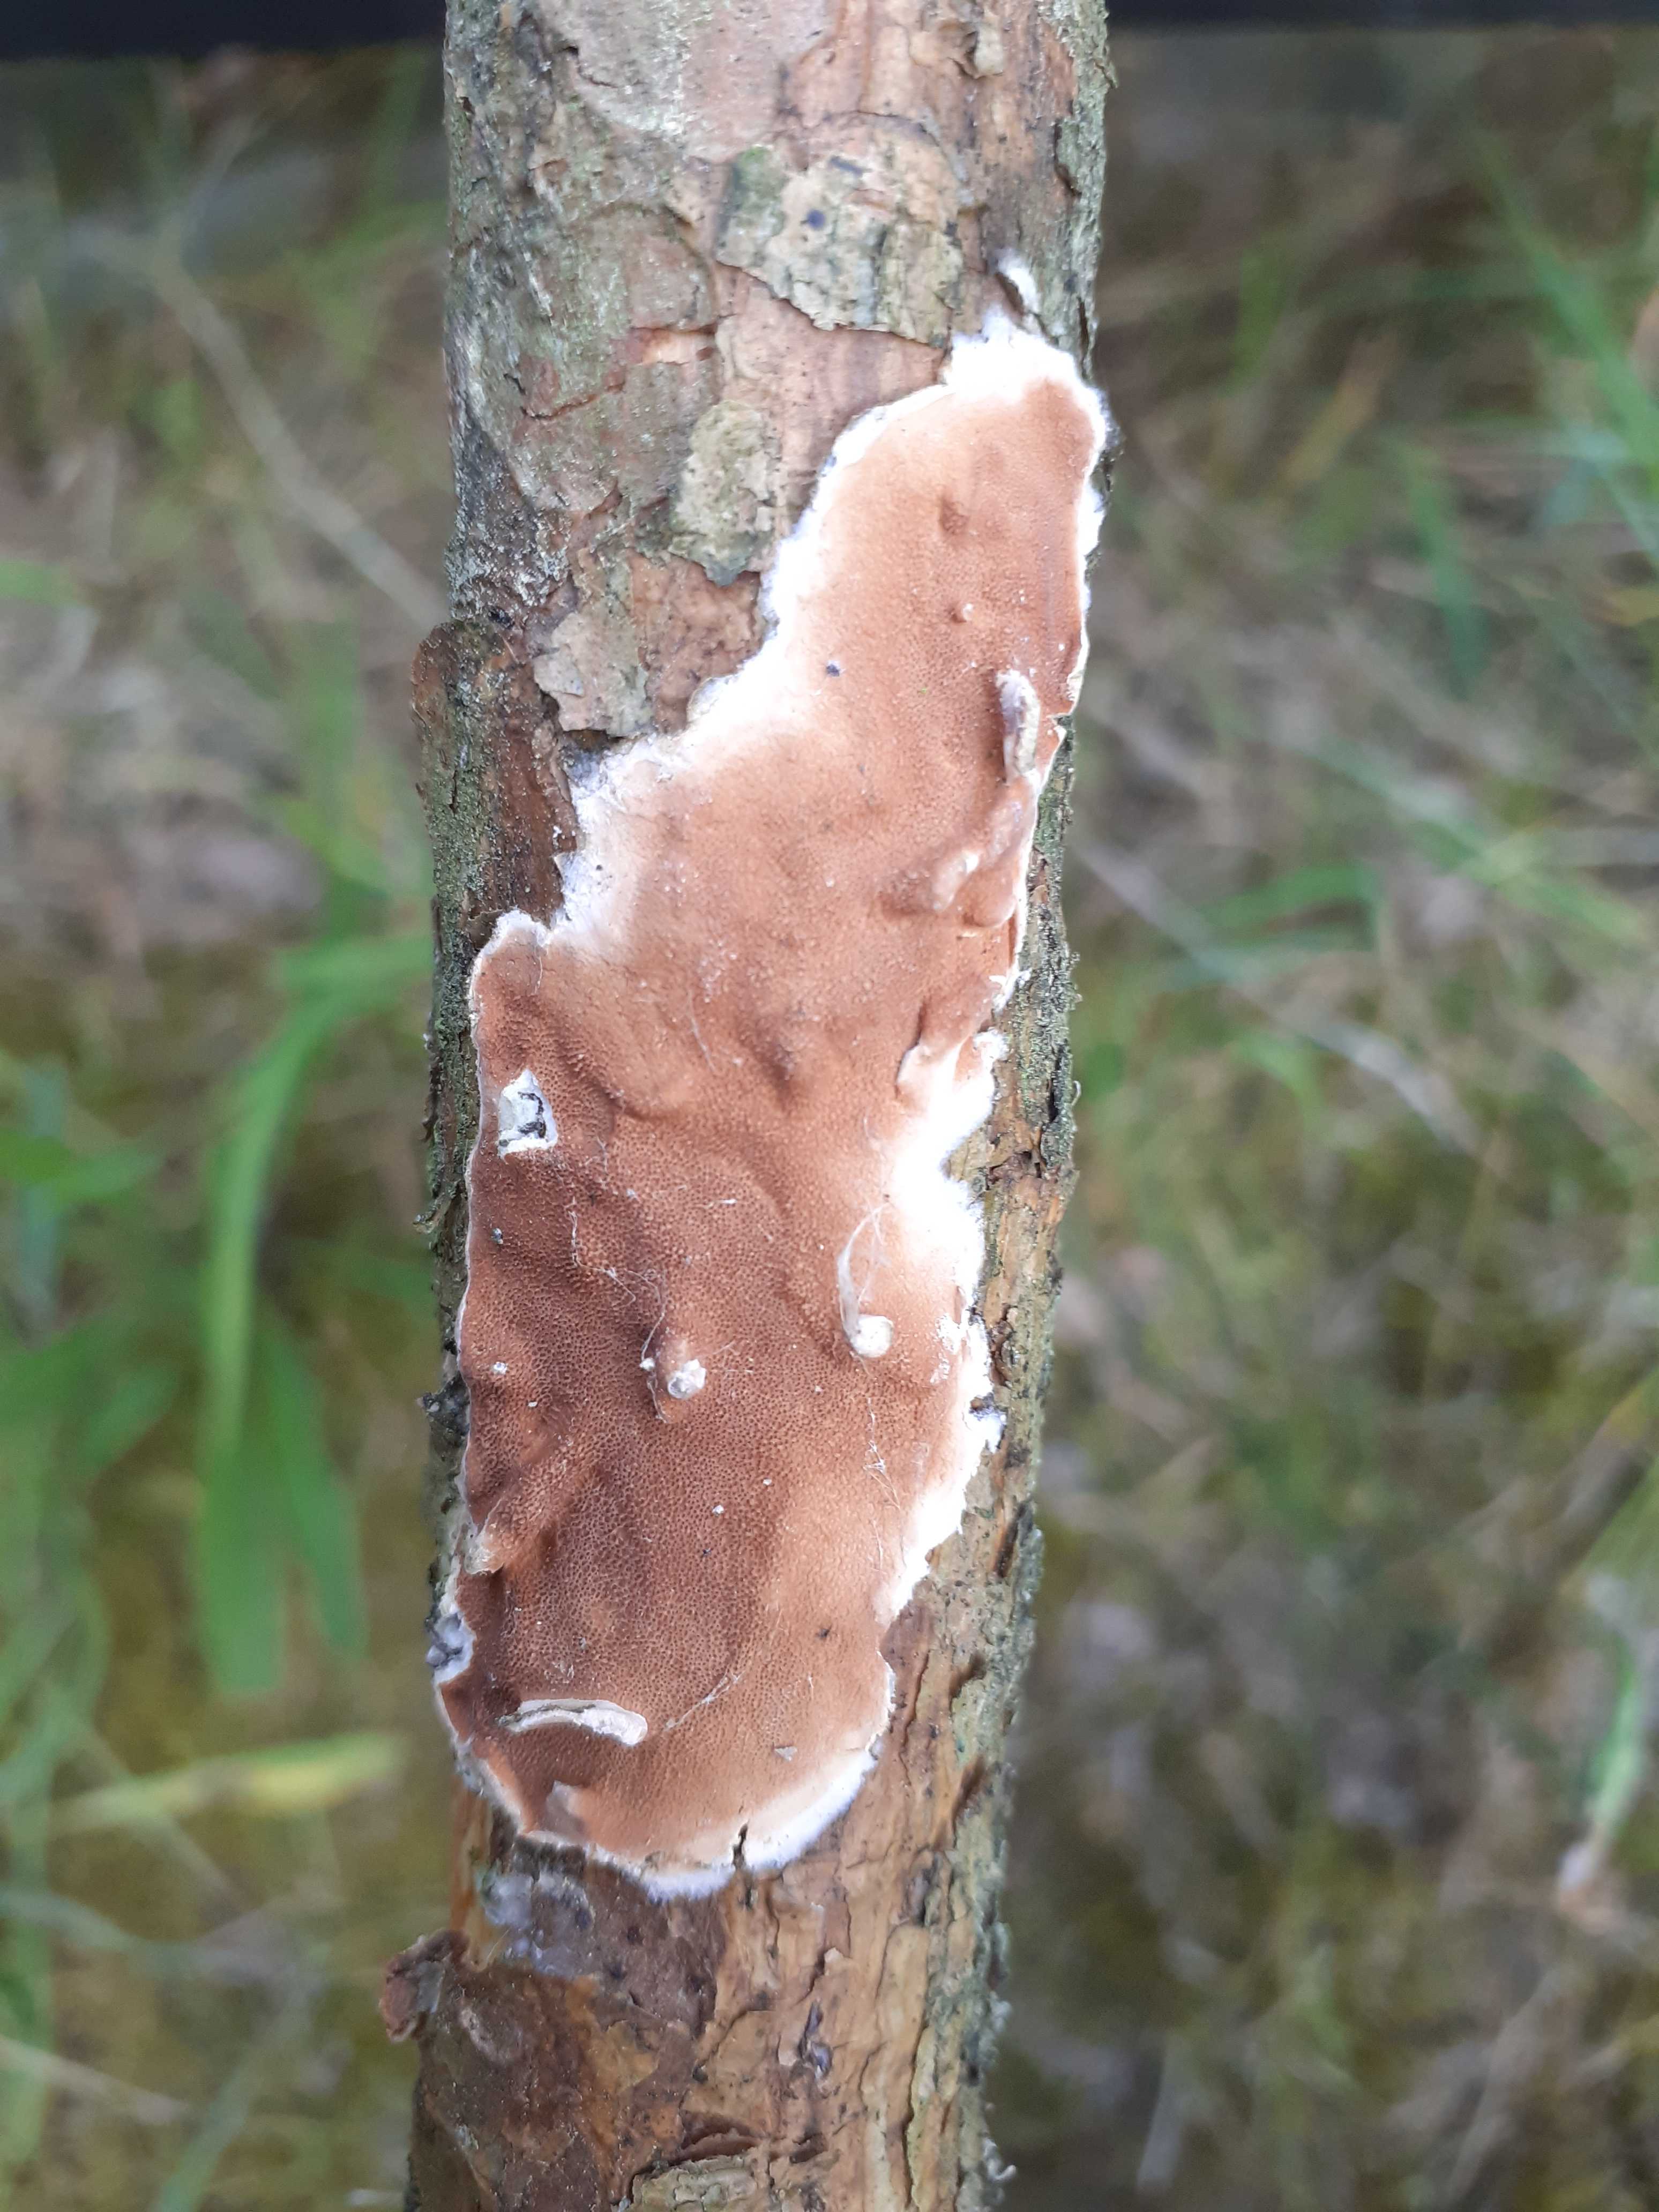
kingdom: Fungi
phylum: Basidiomycota
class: Agaricomycetes
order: Polyporales
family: Irpicaceae
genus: Meruliopsis
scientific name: Meruliopsis taxicola
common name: purpurbrun foldporesvamp
